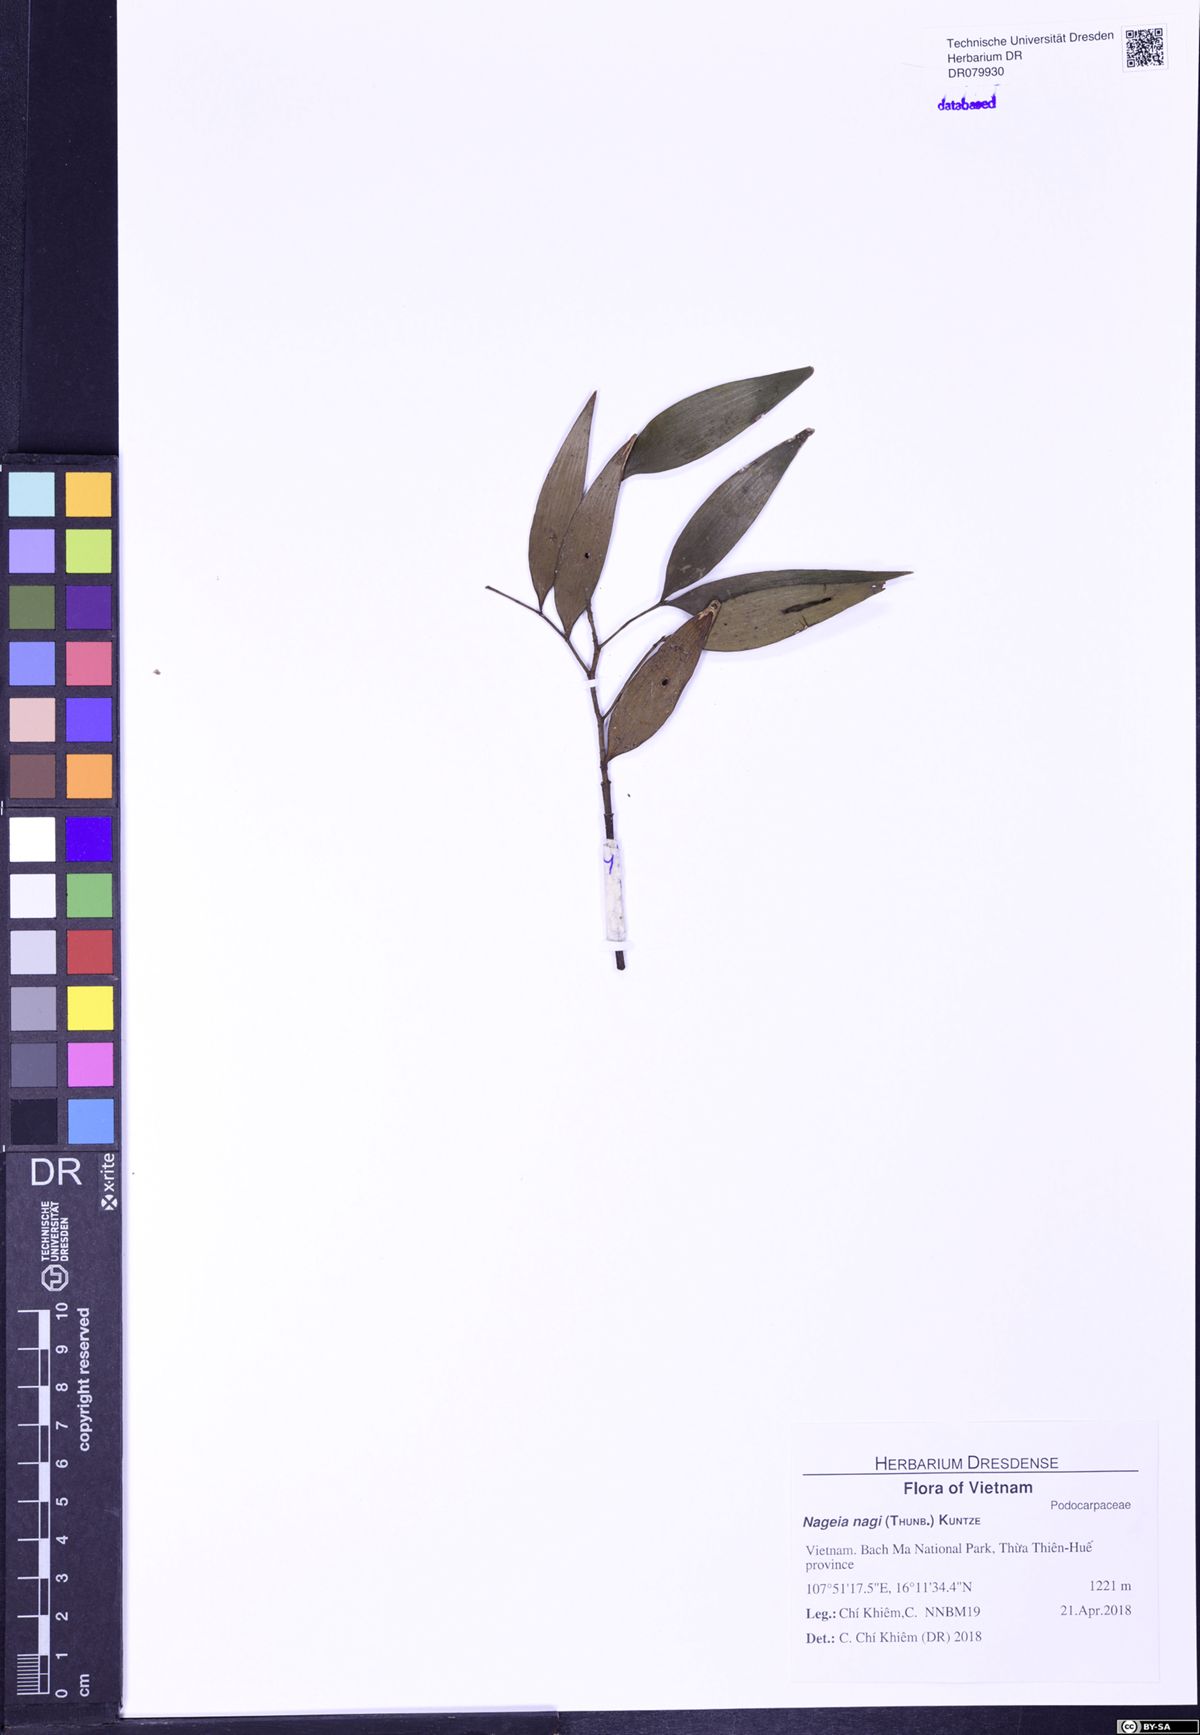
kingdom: Plantae
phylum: Tracheophyta
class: Pinopsida
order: Pinales
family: Podocarpaceae
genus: Nageia
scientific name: Nageia nagi
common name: Kaphal
